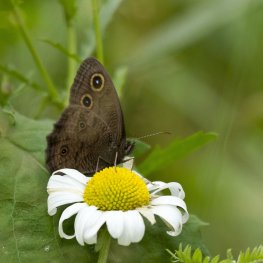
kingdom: Animalia
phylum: Arthropoda
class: Insecta
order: Lepidoptera
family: Nymphalidae
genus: Cercyonis
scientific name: Cercyonis pegala
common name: Common Wood-Nymph
